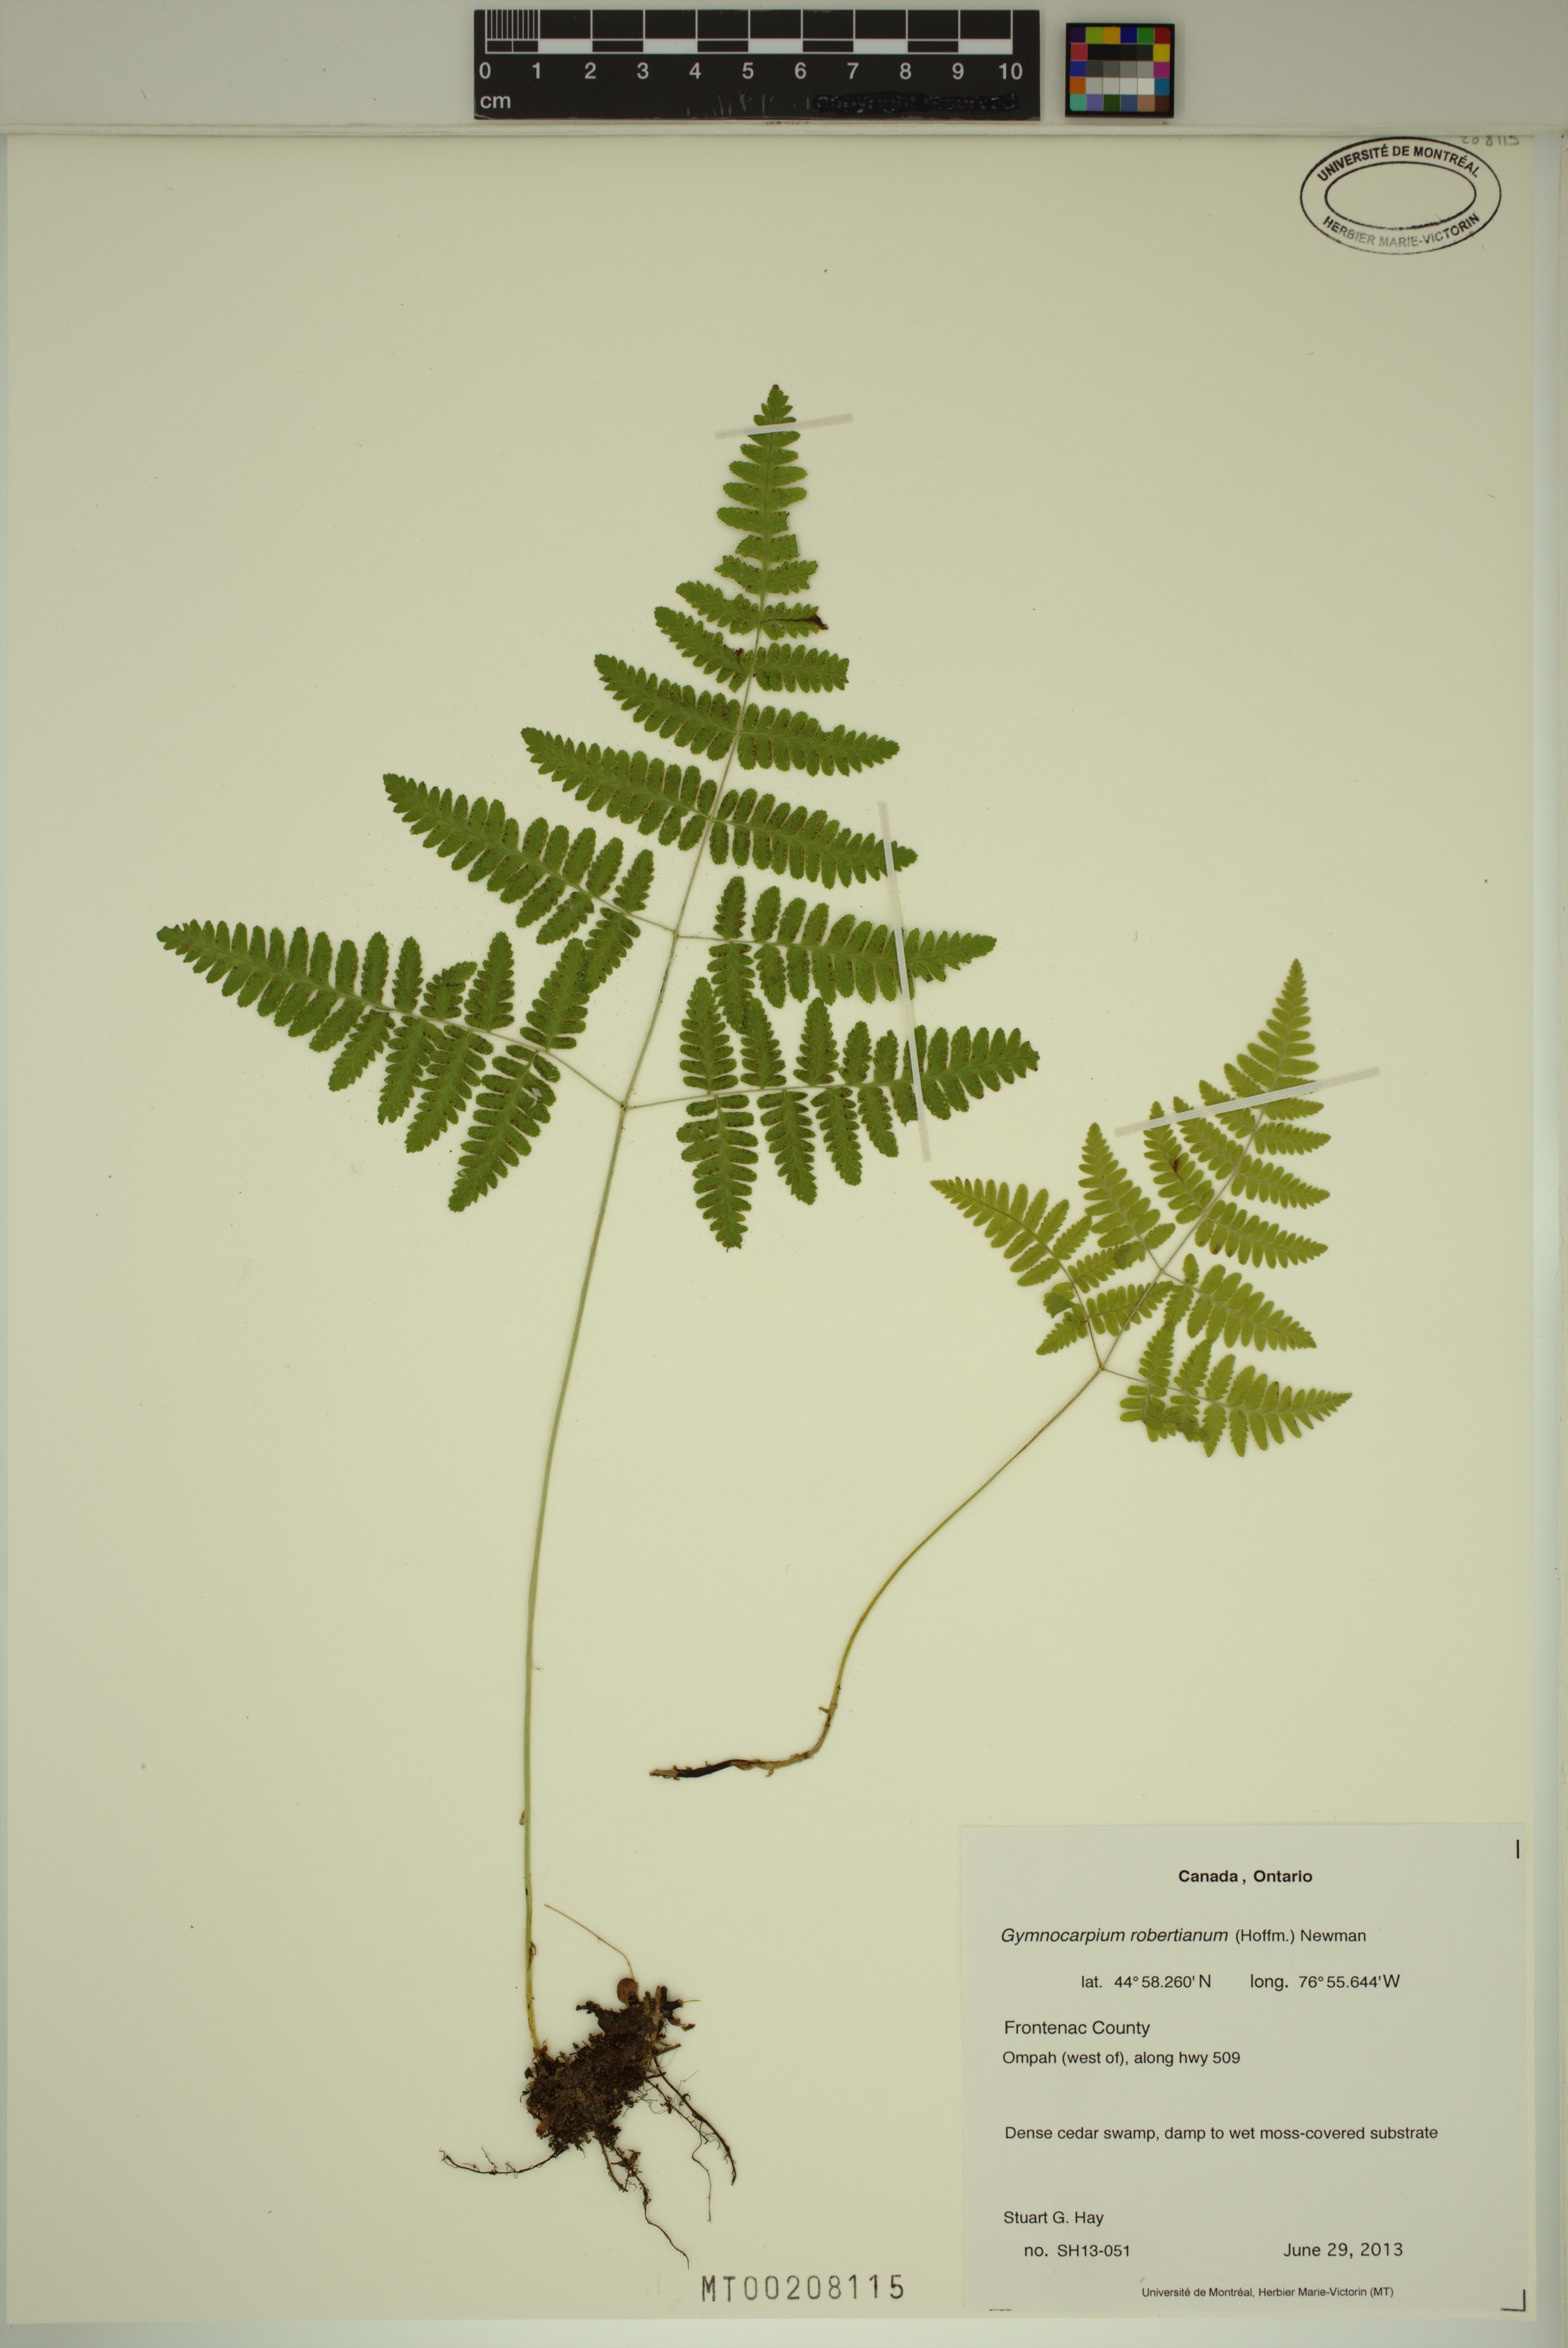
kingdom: Plantae
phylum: Tracheophyta
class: Polypodiopsida
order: Polypodiales
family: Cystopteridaceae
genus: Gymnocarpium
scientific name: Gymnocarpium robertianum
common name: Limestone fern
